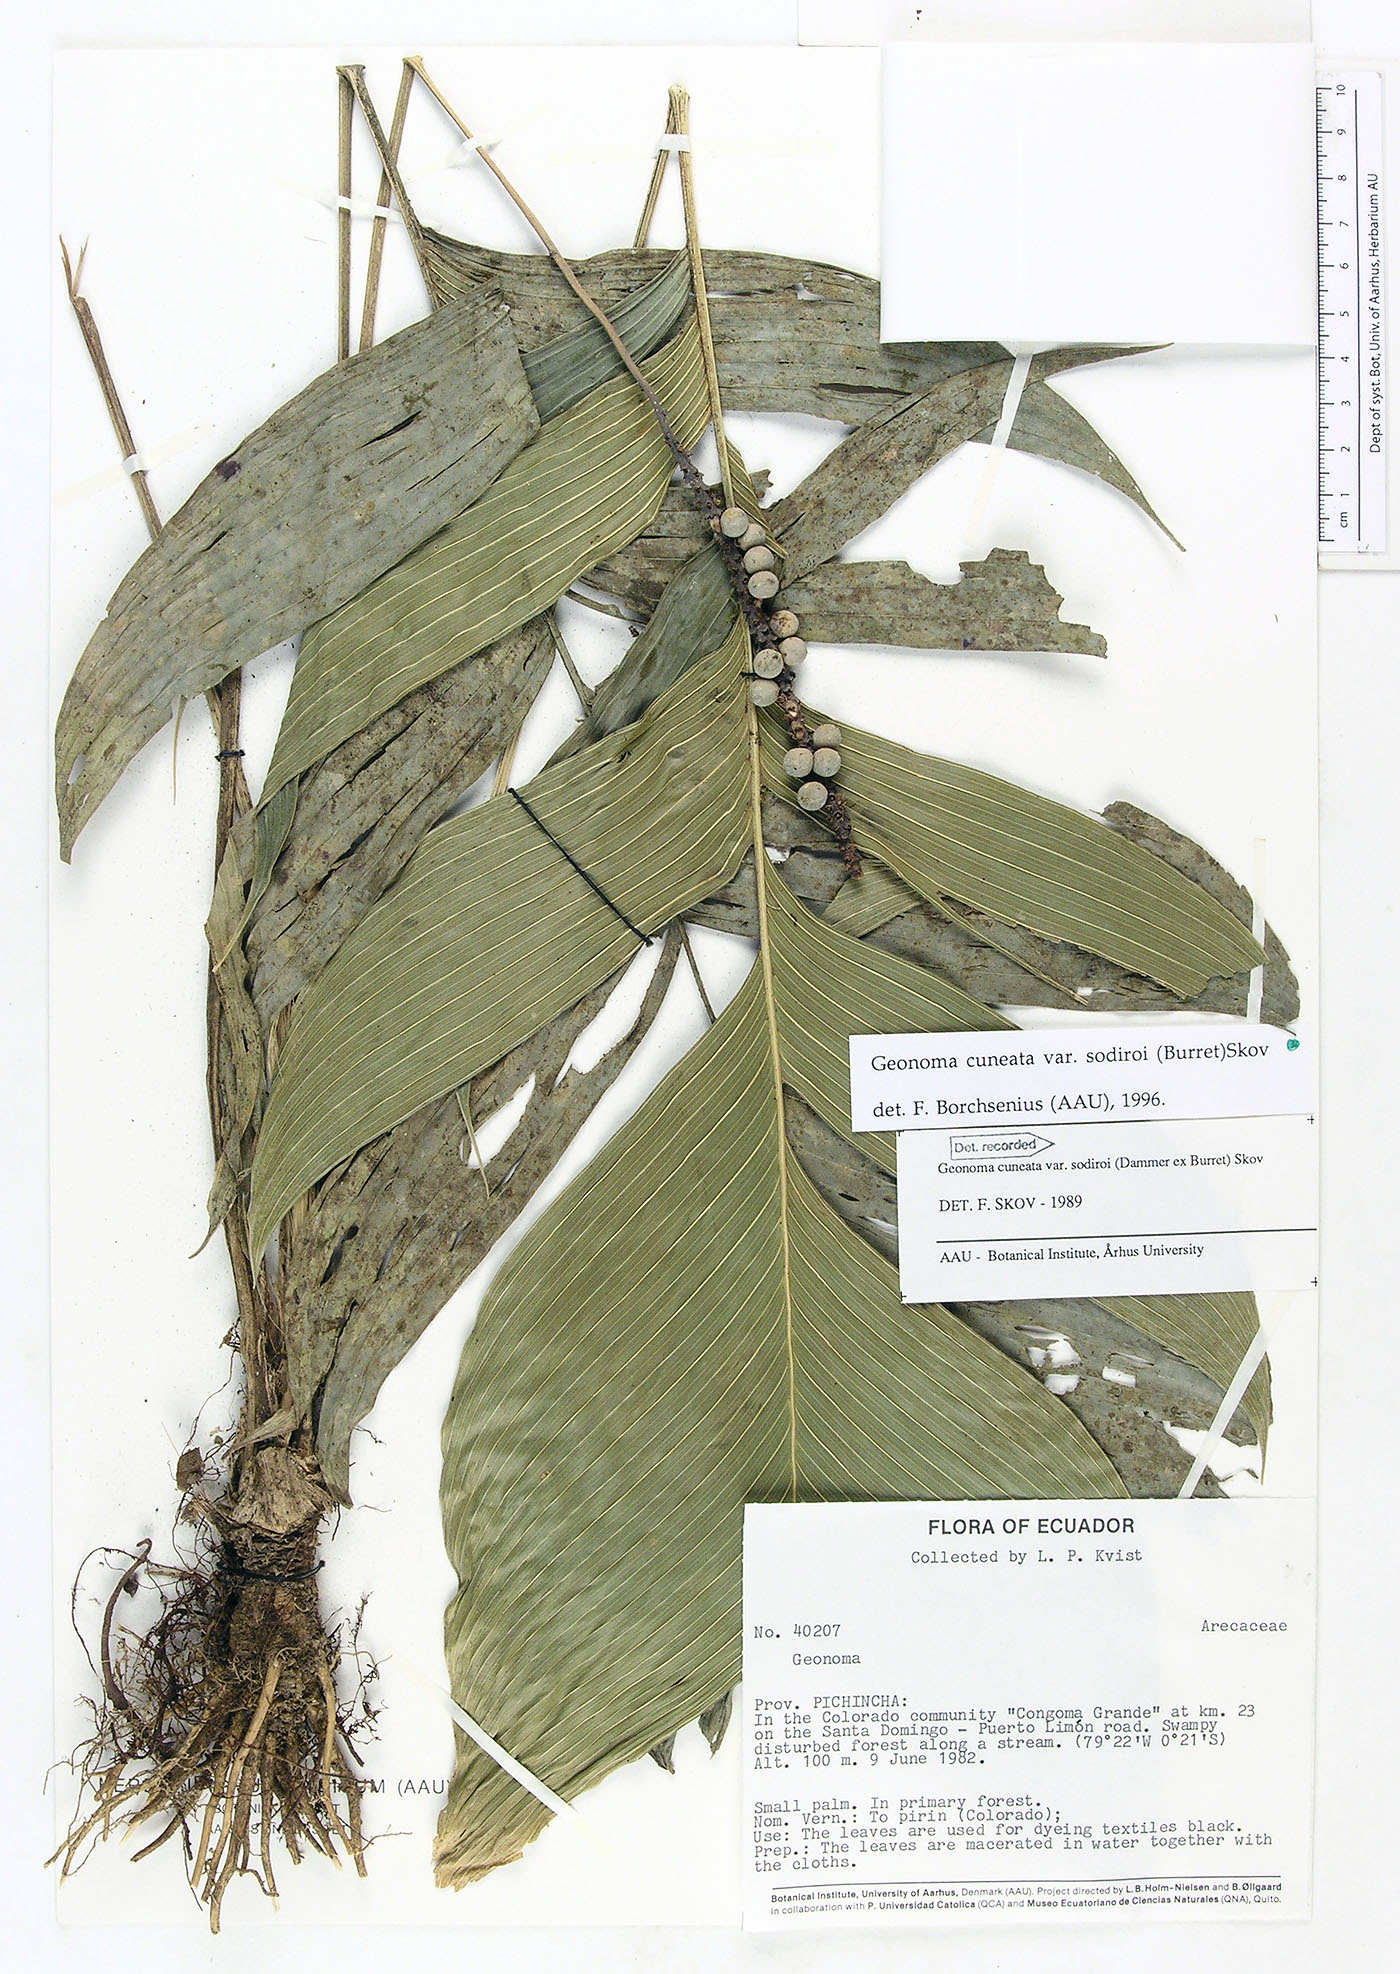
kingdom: Plantae
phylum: Tracheophyta
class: Liliopsida
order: Arecales
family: Arecaceae
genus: Geonoma
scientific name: Geonoma cuneata
